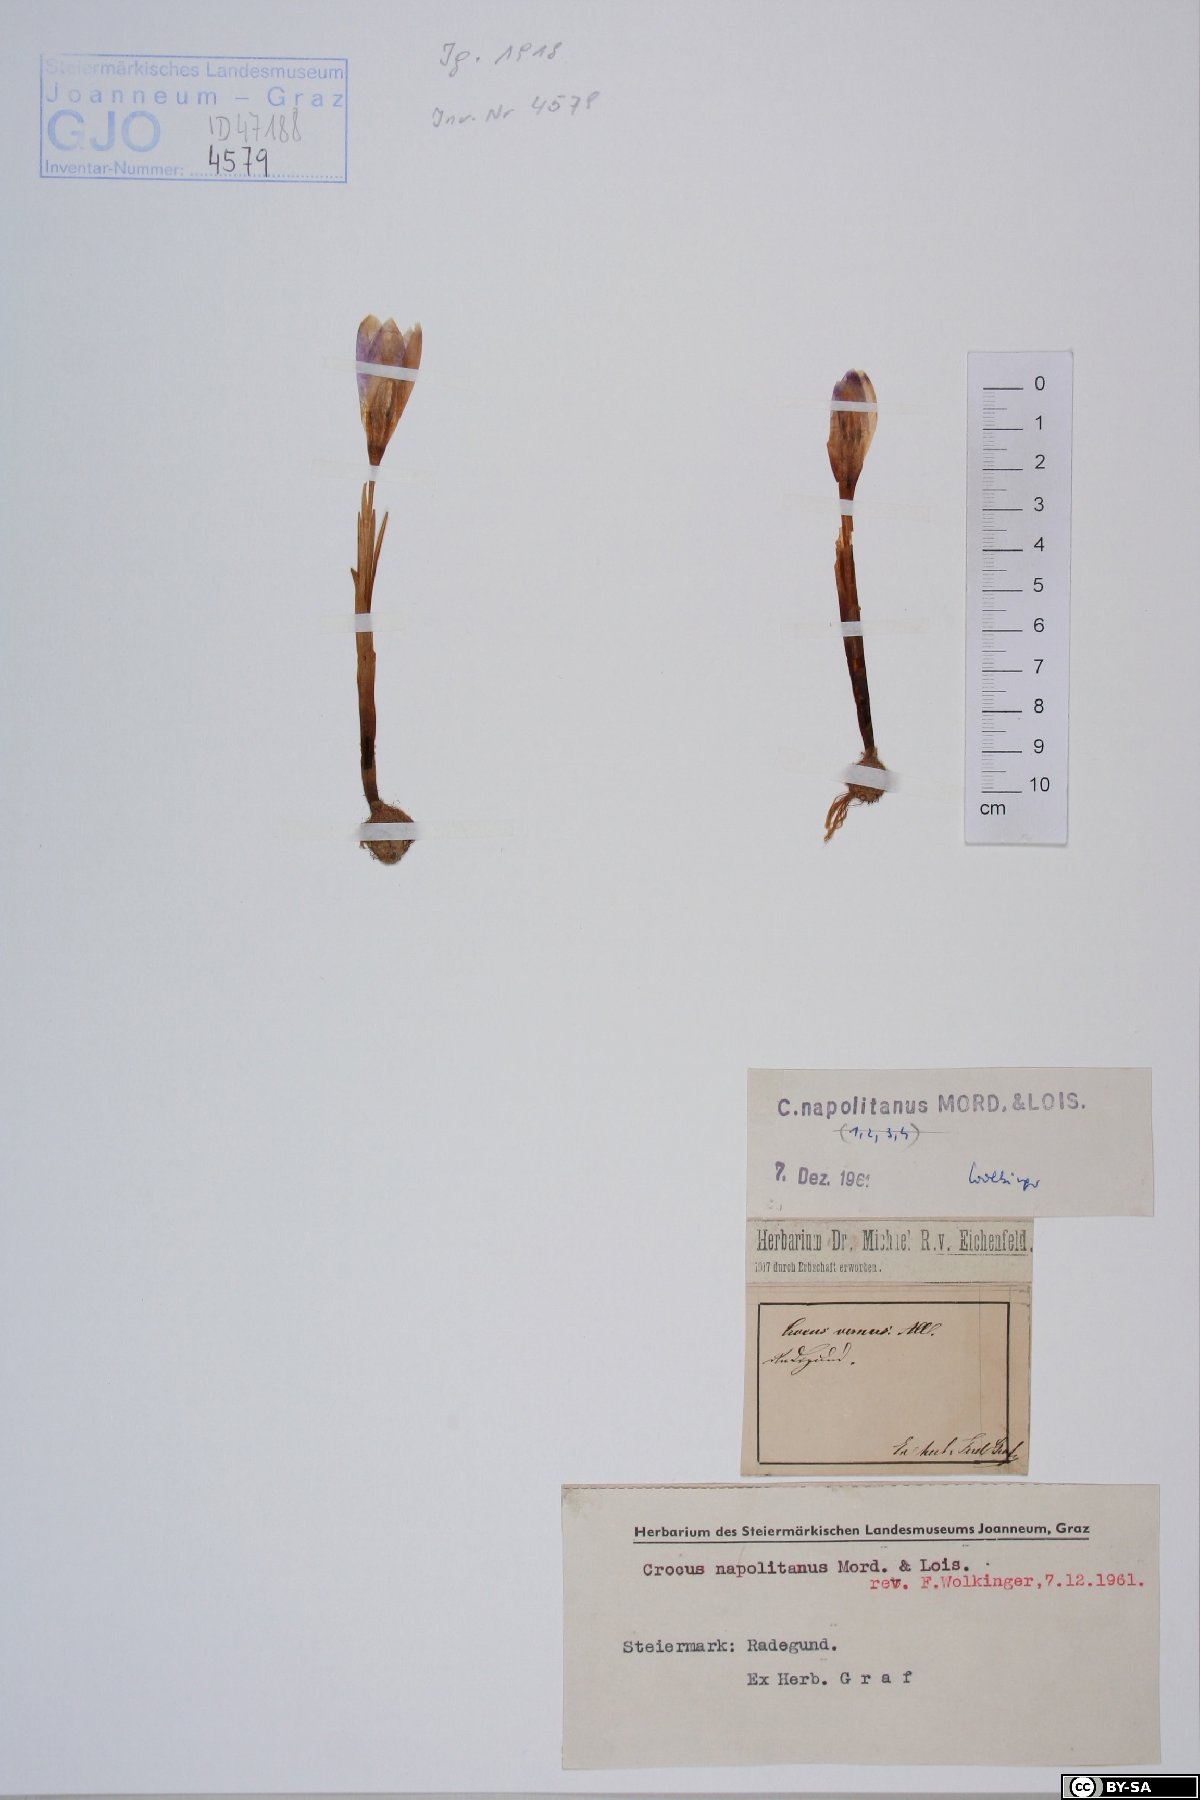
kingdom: Plantae
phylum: Tracheophyta
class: Liliopsida
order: Asparagales
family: Iridaceae
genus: Crocus
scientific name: Crocus vernus
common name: Spring crocus
